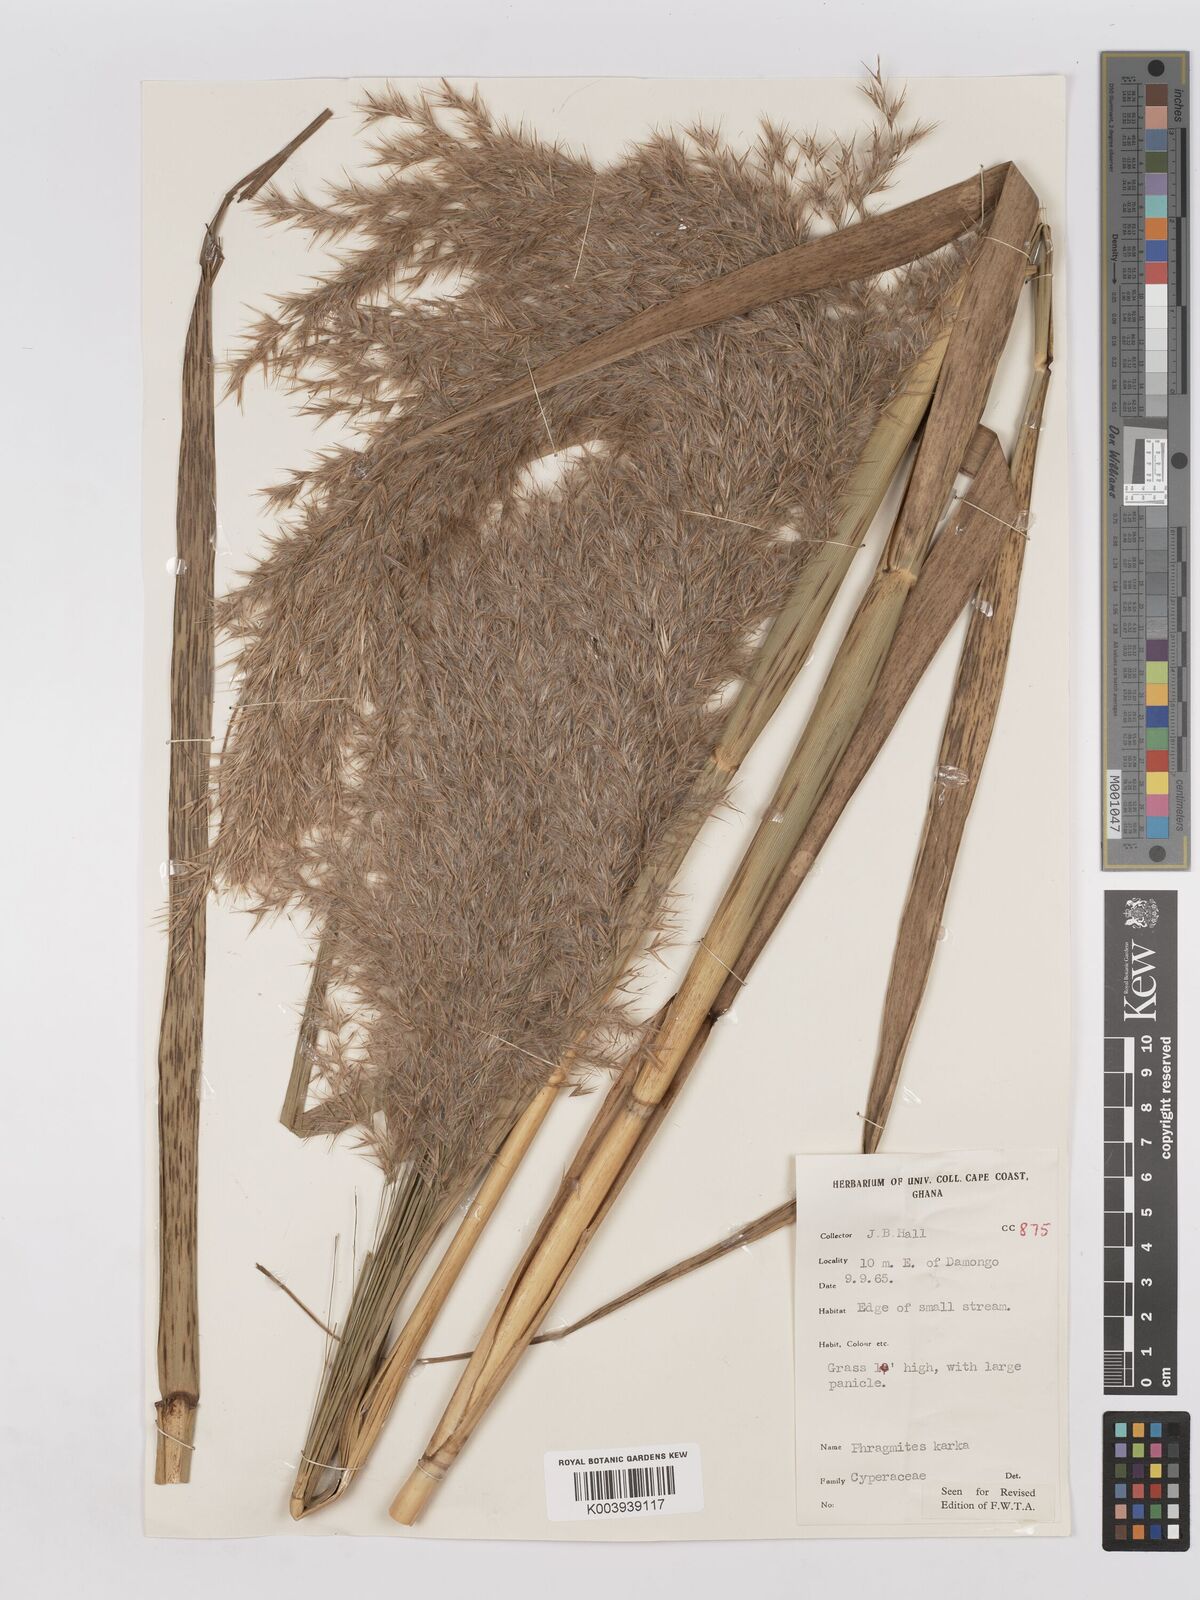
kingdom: Plantae
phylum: Tracheophyta
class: Liliopsida
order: Poales
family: Poaceae
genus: Phragmites
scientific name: Phragmites karka
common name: Tropical reed
